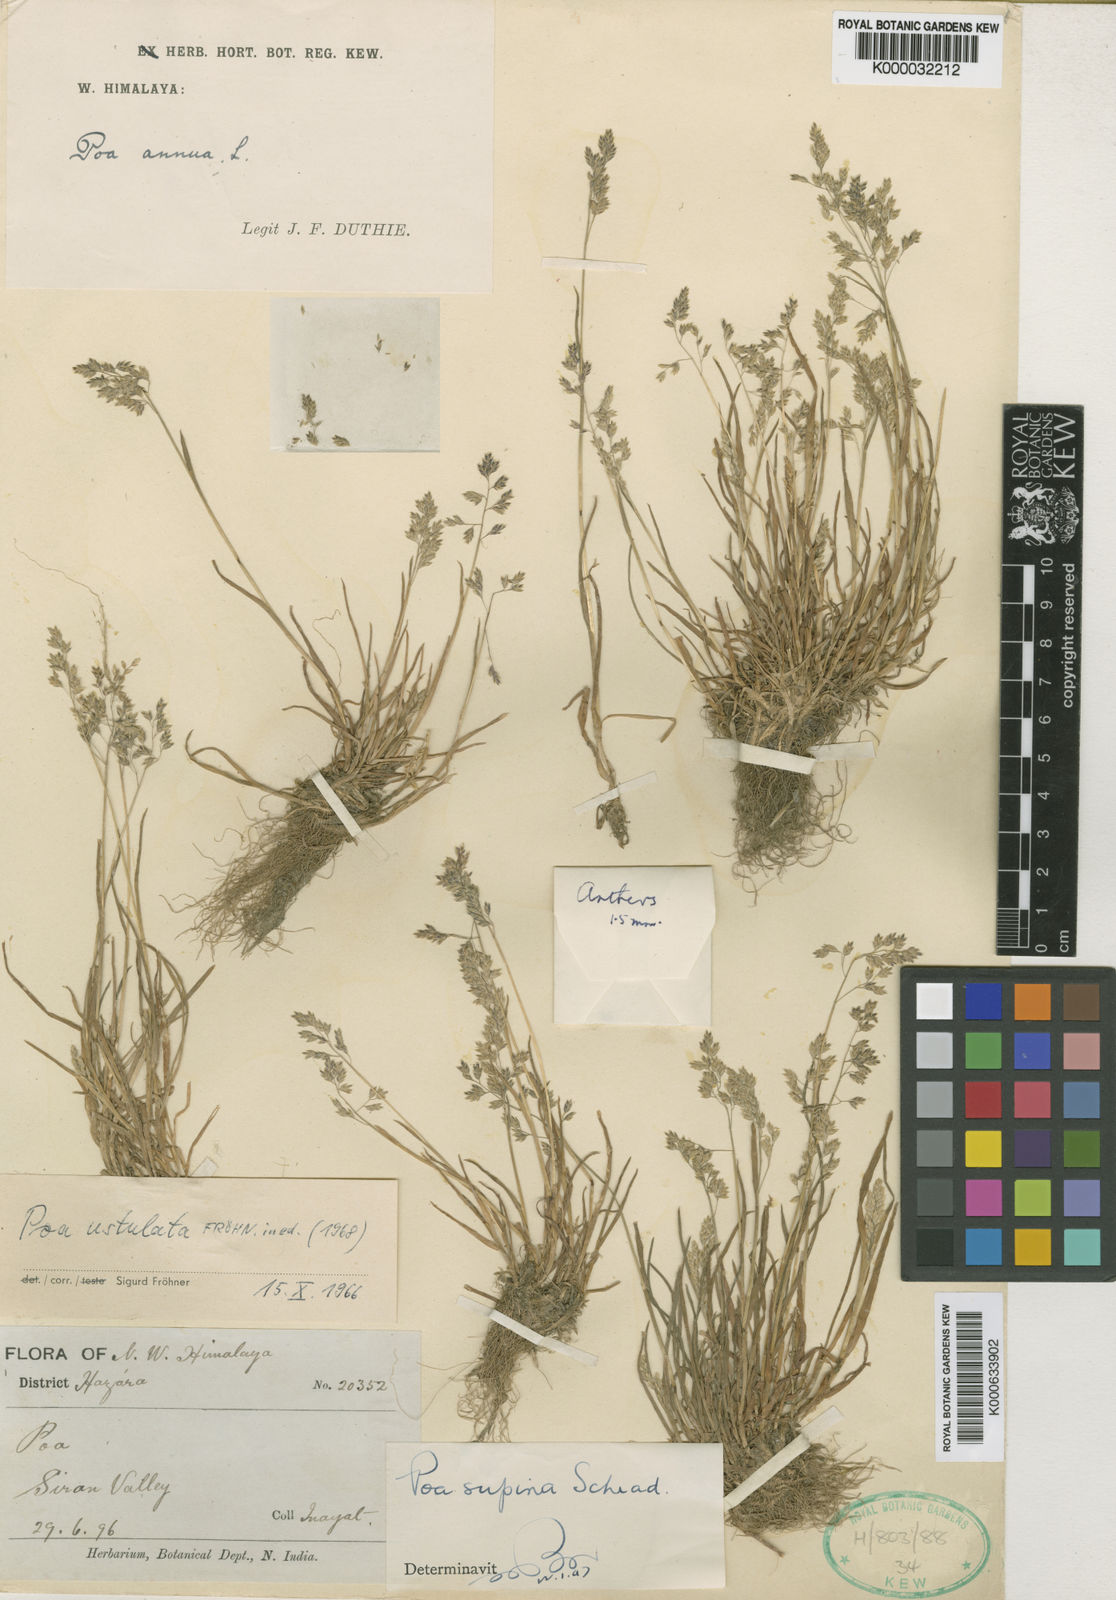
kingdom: Plantae
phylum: Tracheophyta
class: Liliopsida
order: Poales
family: Poaceae
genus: Poa
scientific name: Poa supina
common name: Supina bluegrass
